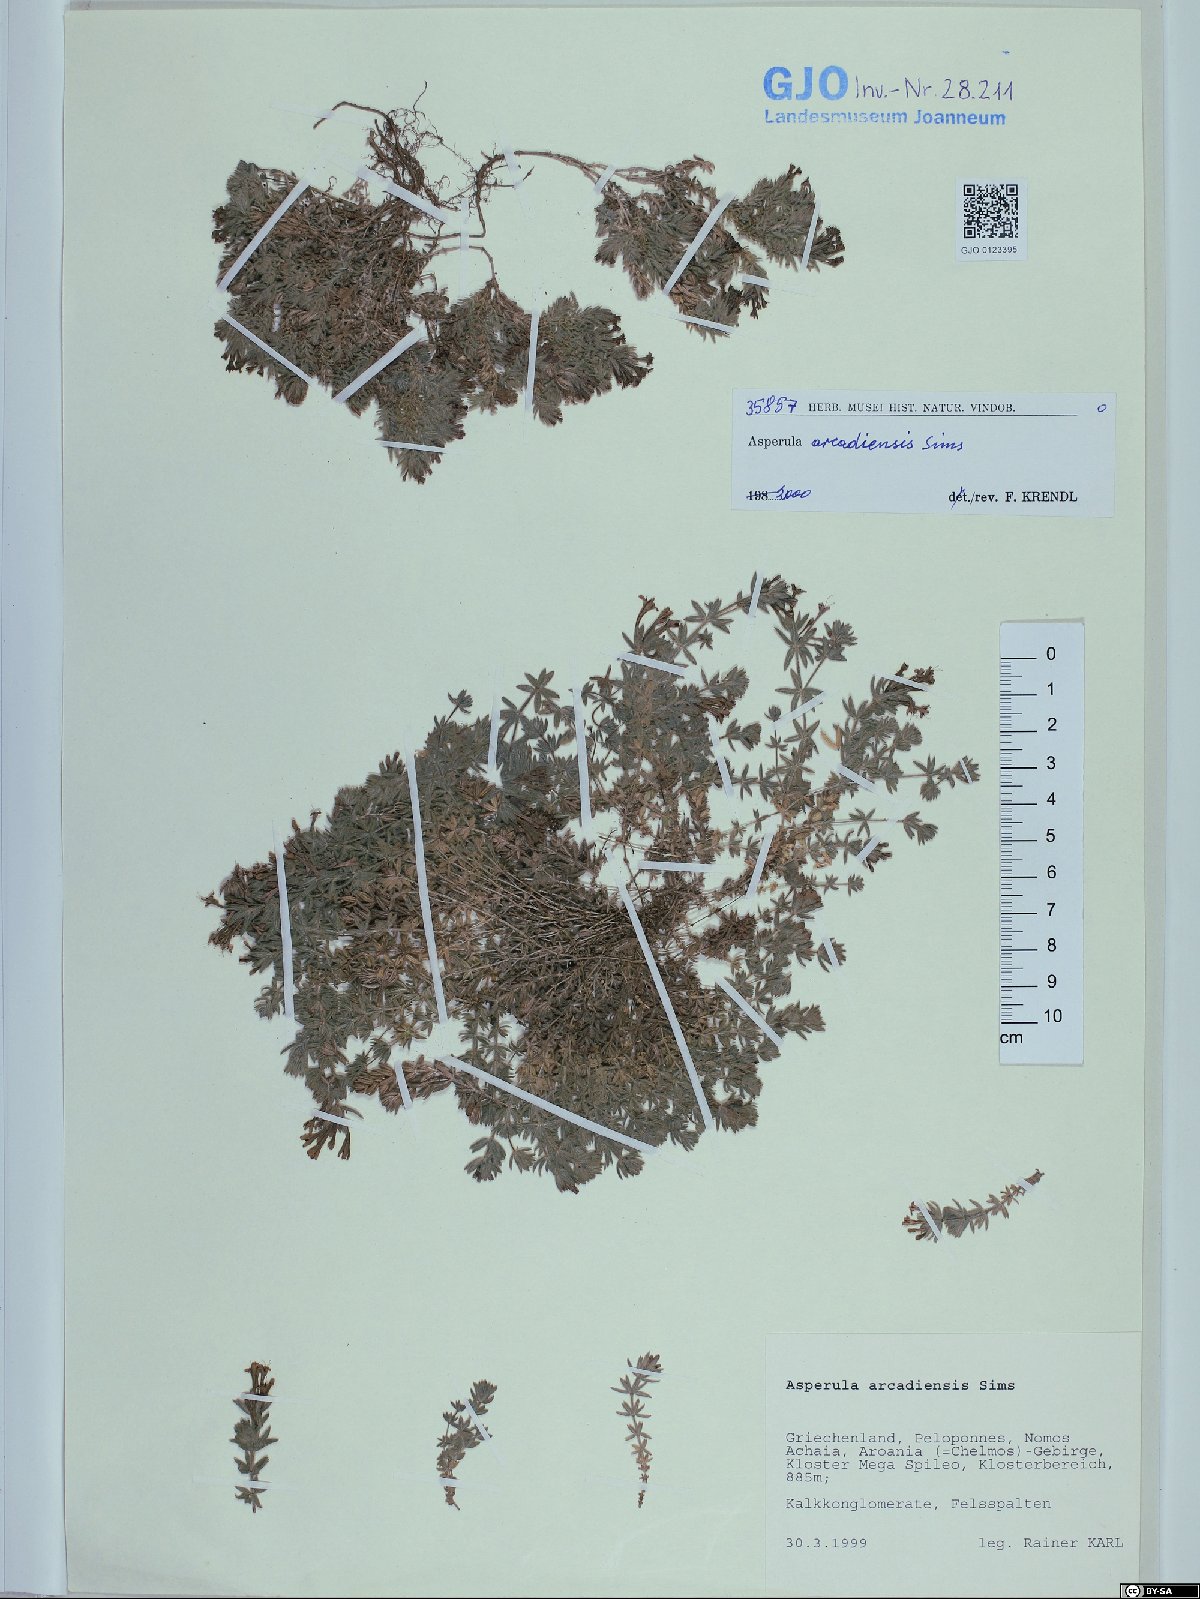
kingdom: Plantae
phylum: Tracheophyta
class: Magnoliopsida
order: Gentianales
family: Rubiaceae
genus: Hexaphylla
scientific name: Hexaphylla arcadiensis
